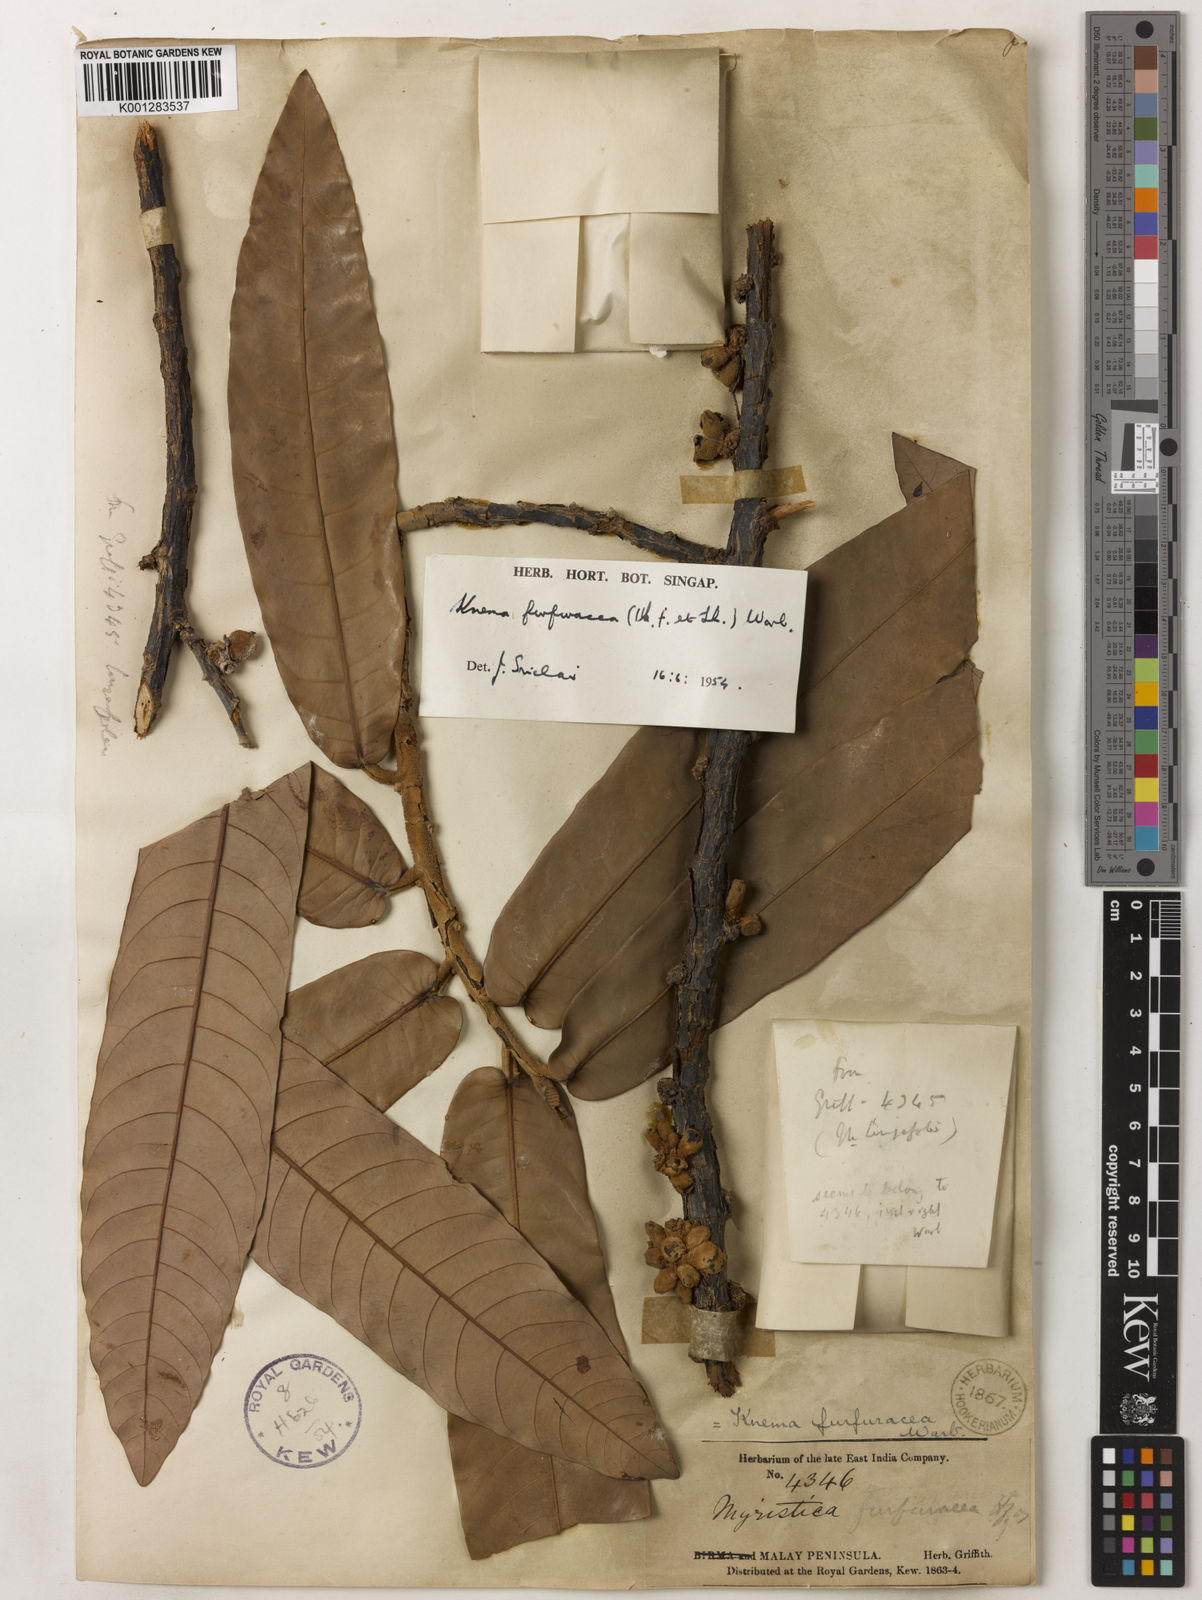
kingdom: Plantae
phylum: Tracheophyta
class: Magnoliopsida
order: Magnoliales
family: Myristicaceae
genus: Knema
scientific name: Knema furfuracea
